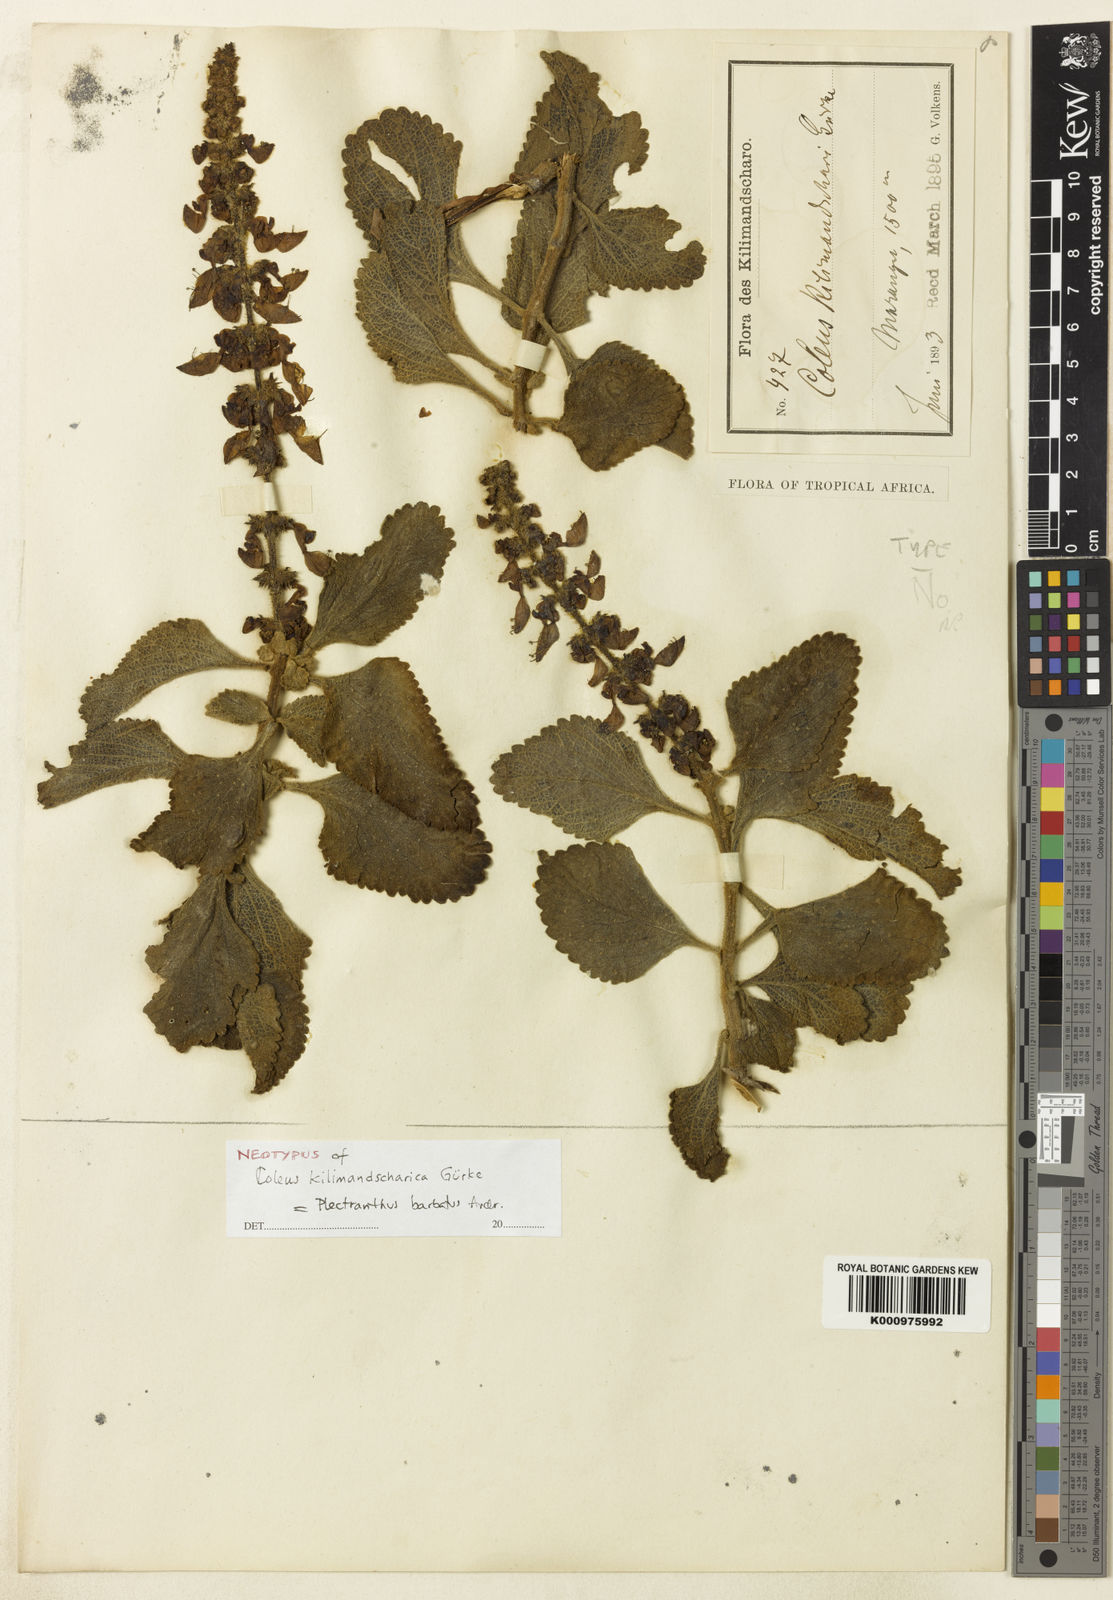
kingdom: Plantae
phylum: Tracheophyta
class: Magnoliopsida
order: Lamiales
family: Lamiaceae
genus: Coleus
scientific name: Coleus barbatus
